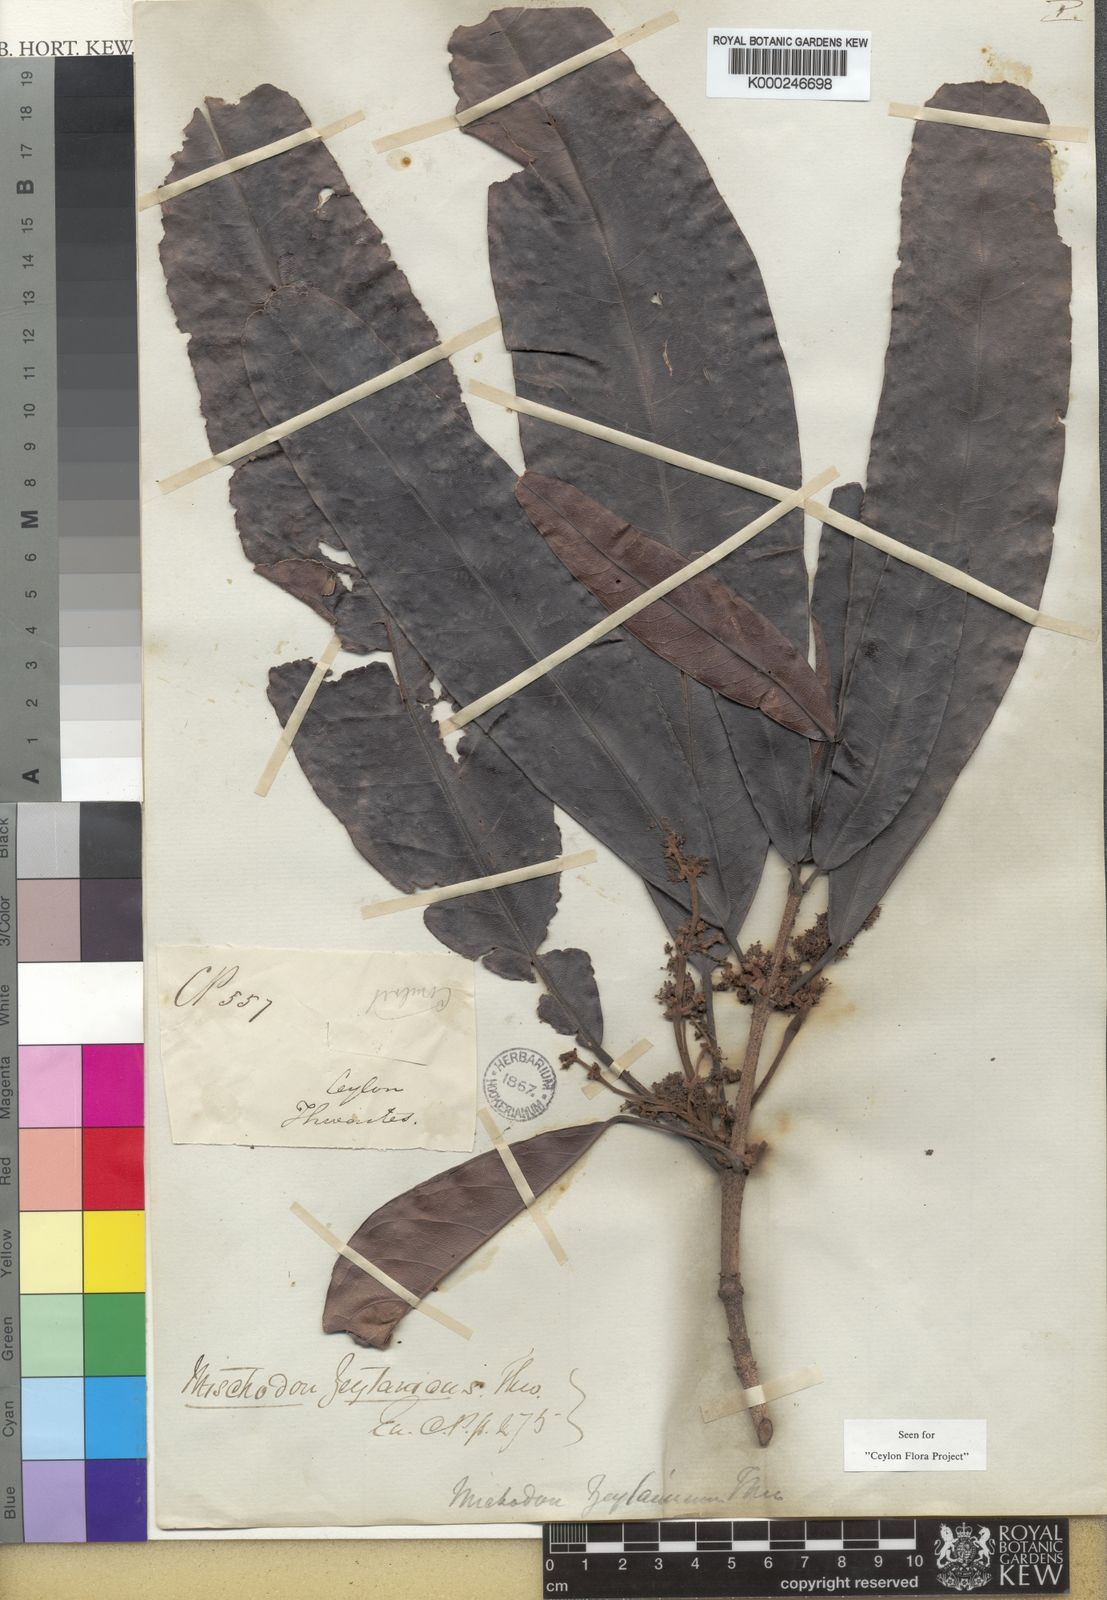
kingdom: Plantae
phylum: Tracheophyta
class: Magnoliopsida
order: Malpighiales
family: Picrodendraceae
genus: Mischodon
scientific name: Mischodon zeylanicus
